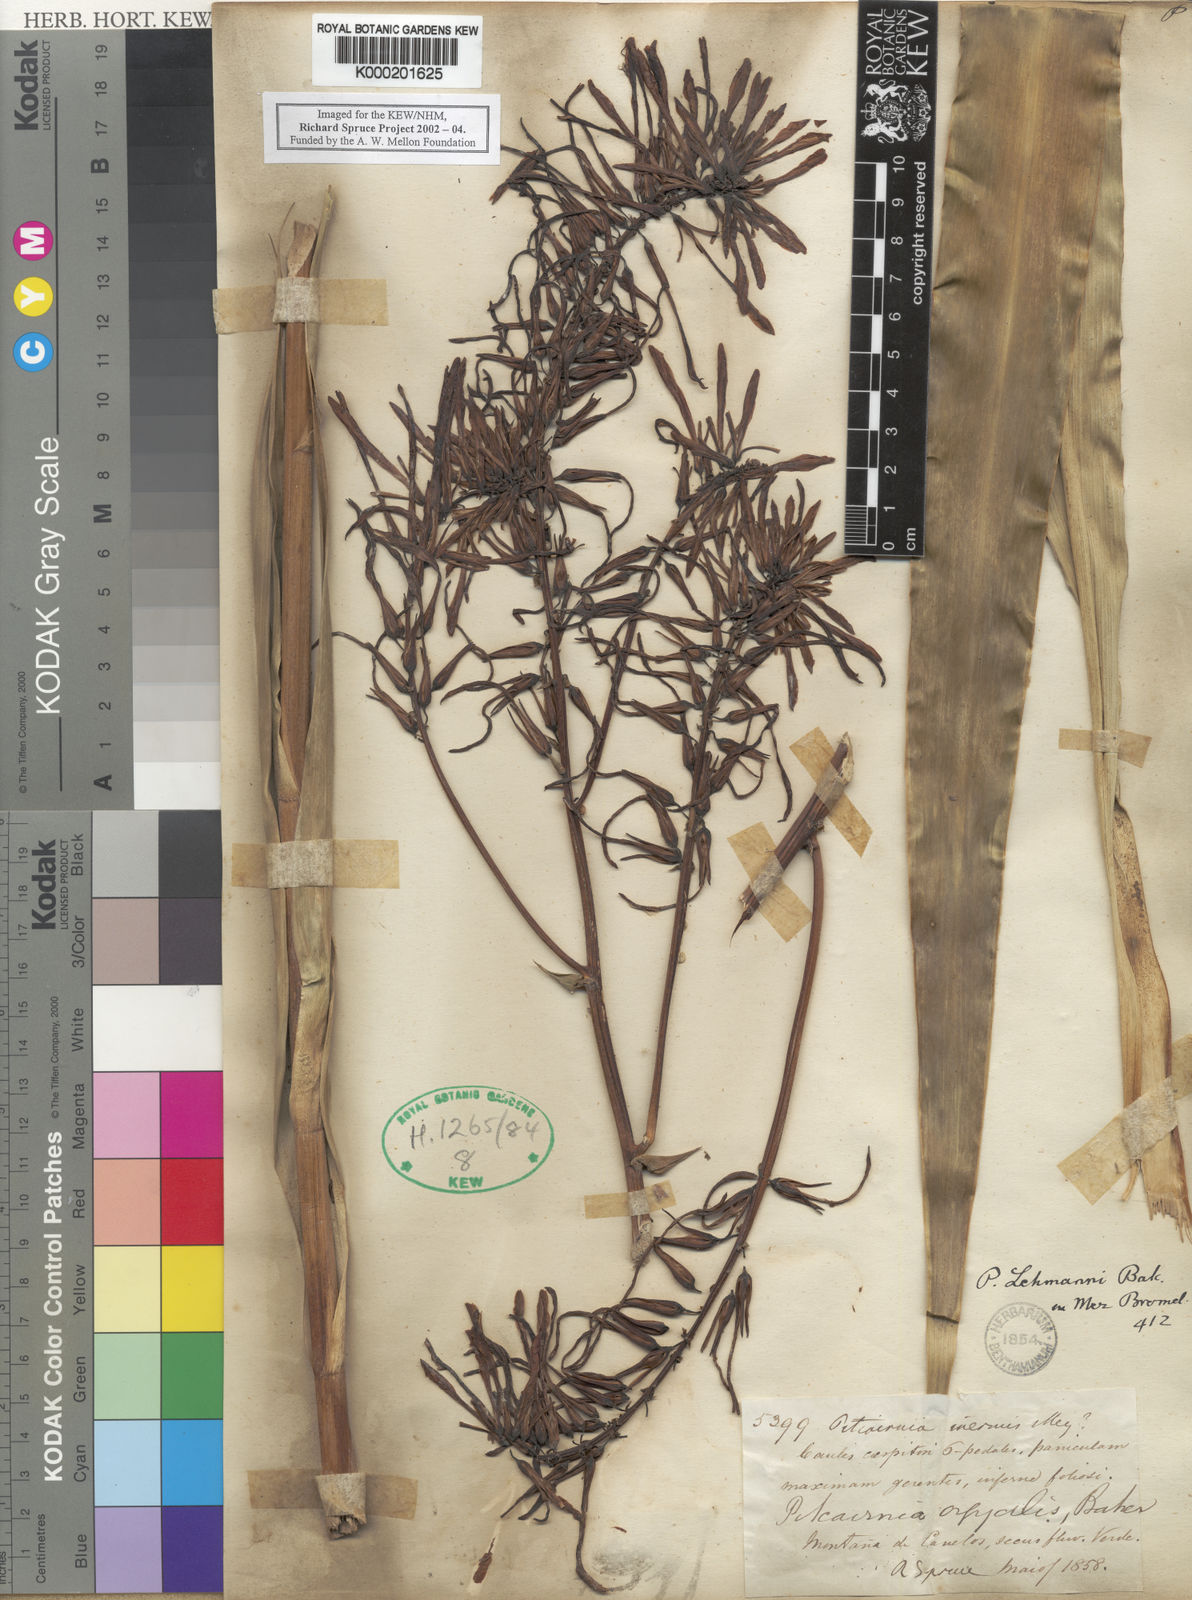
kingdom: Plantae
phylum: Tracheophyta
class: Liliopsida
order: Poales
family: Bromeliaceae
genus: Pitcairnia
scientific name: Pitcairnia
